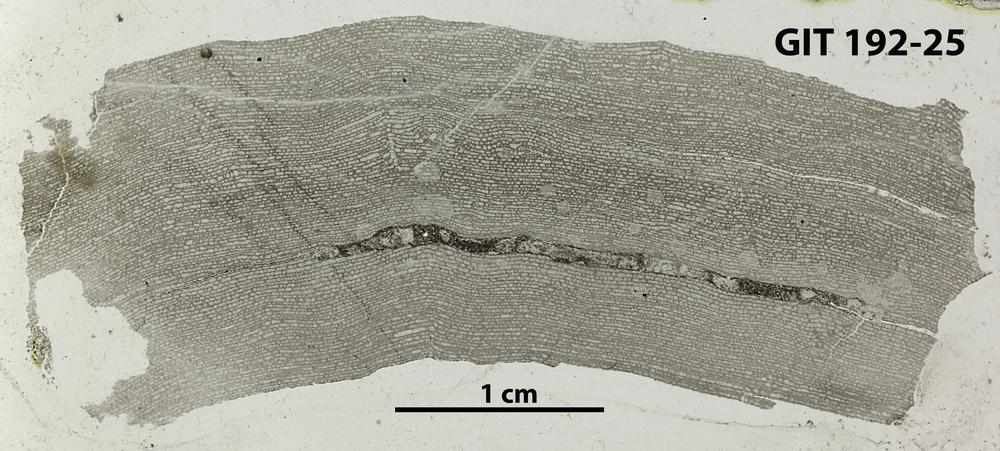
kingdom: Animalia
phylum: Porifera
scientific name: Porifera
